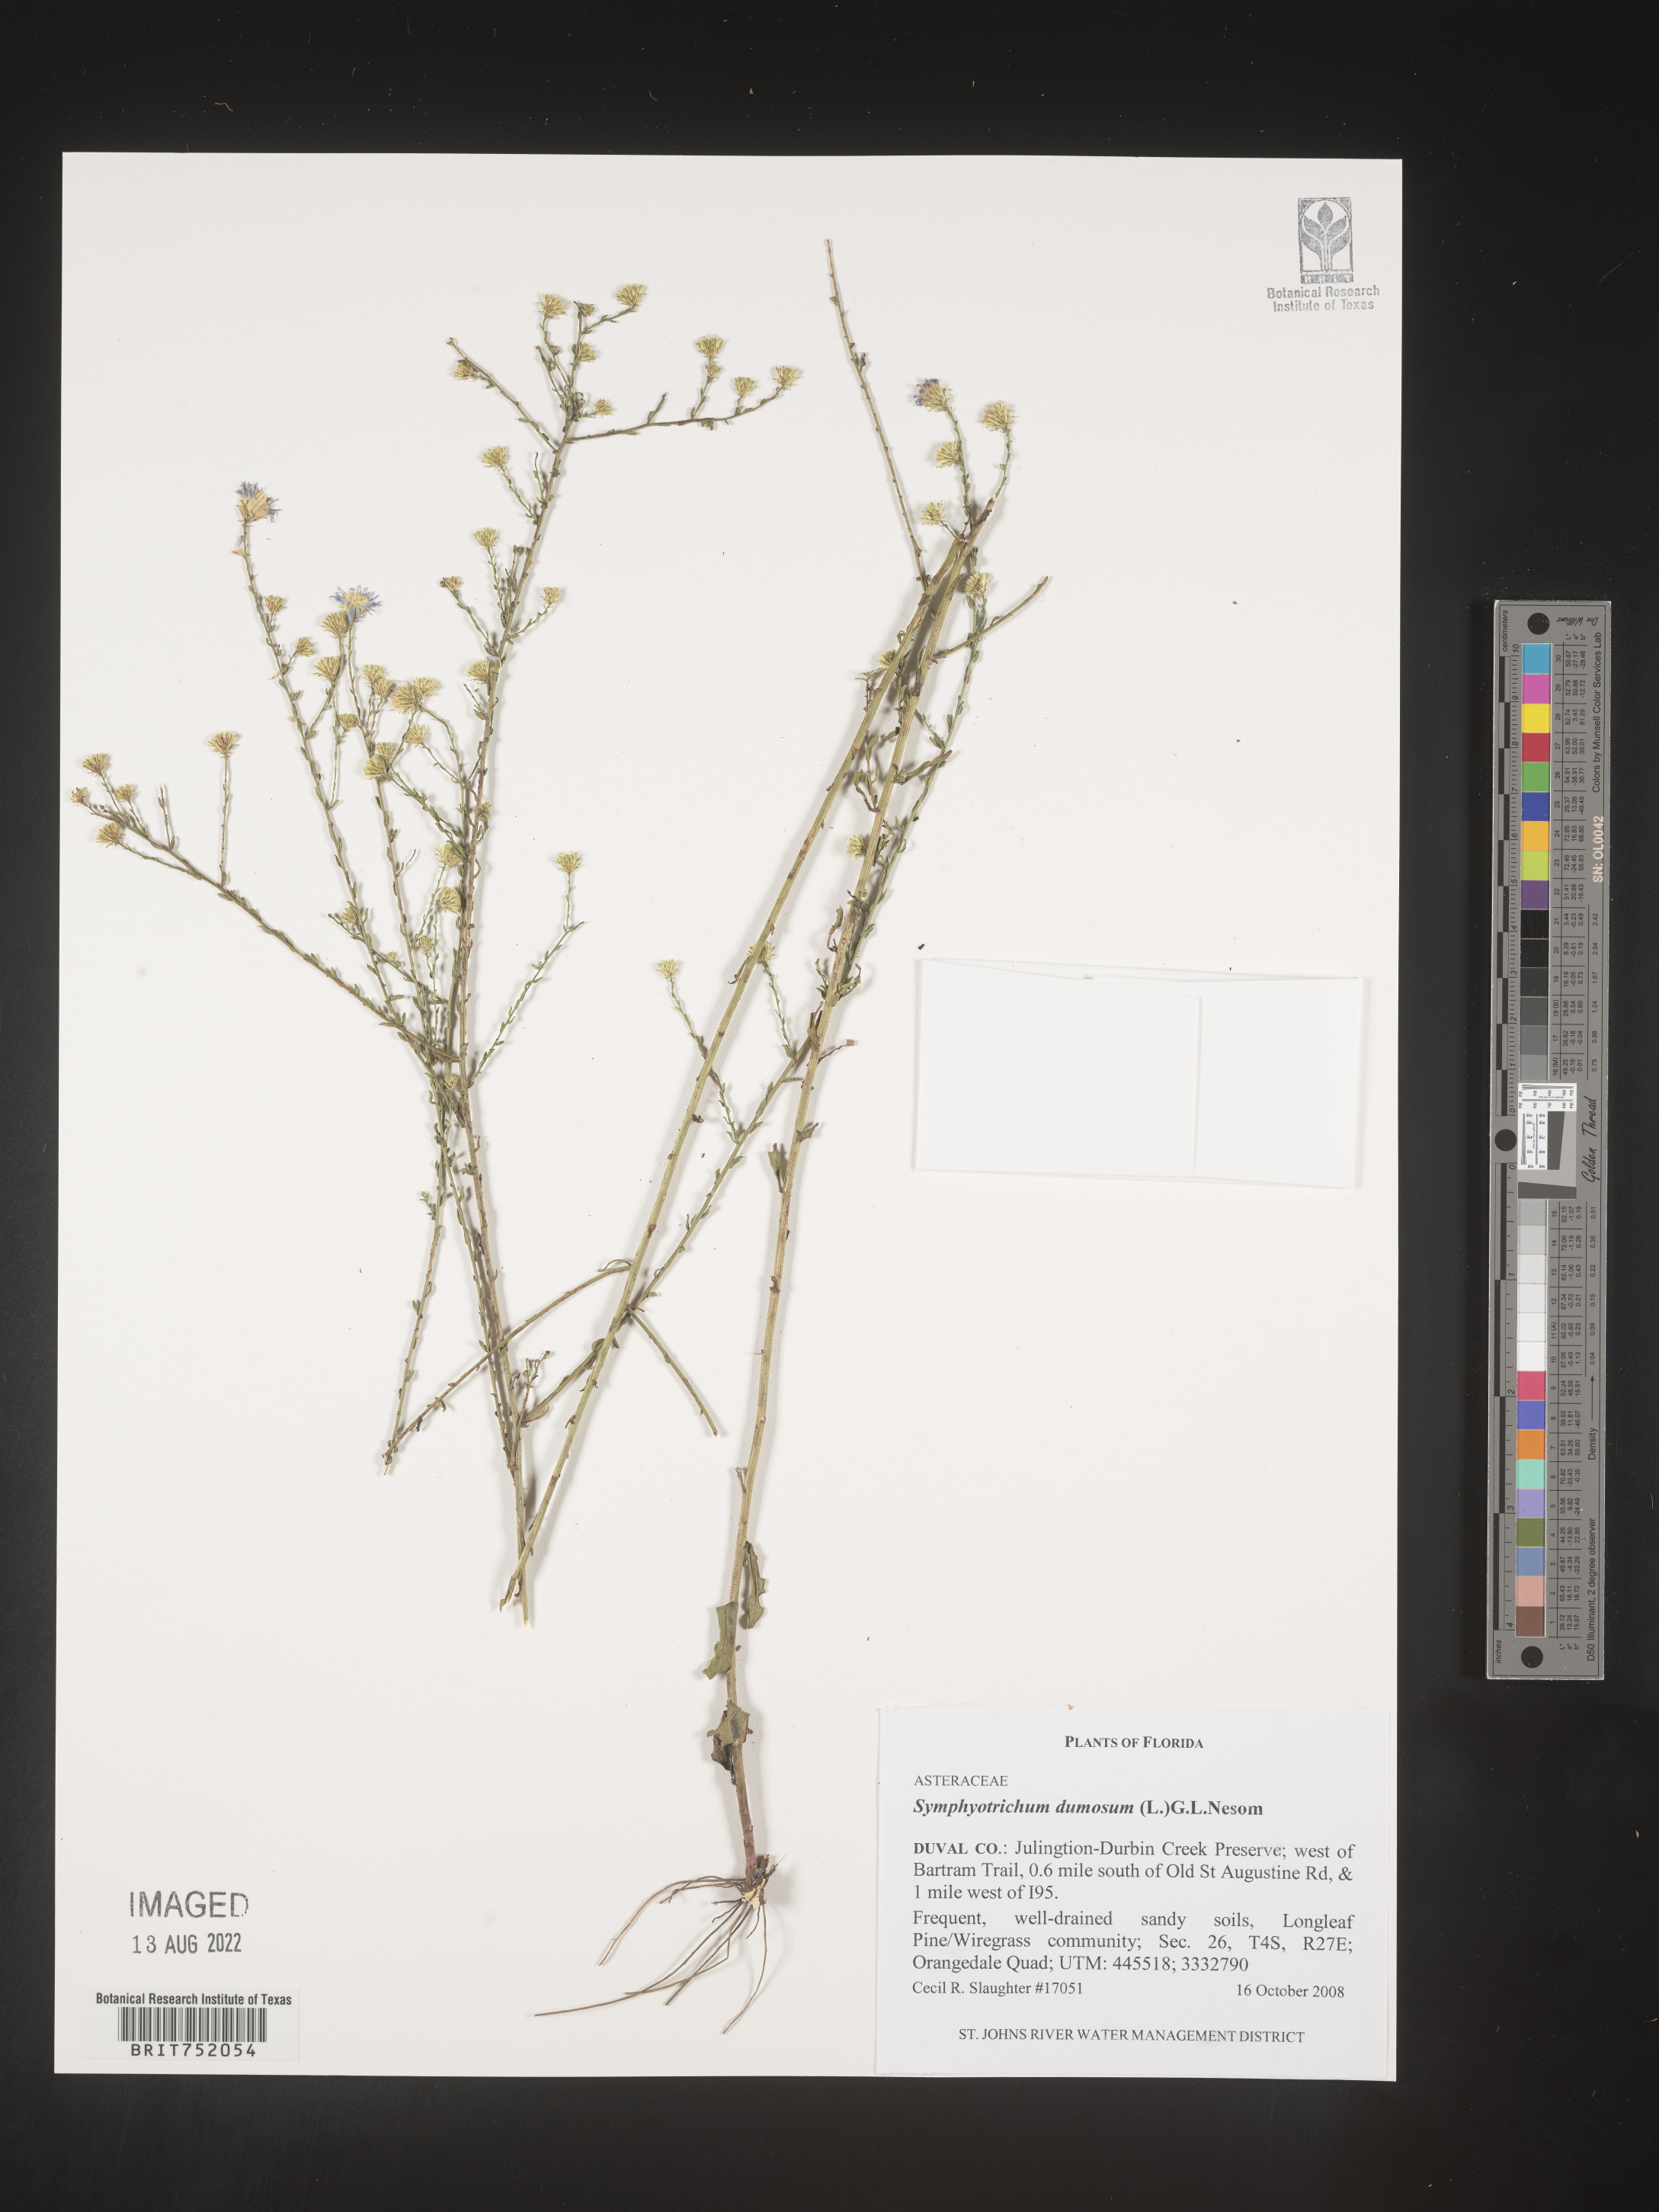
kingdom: Plantae
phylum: Tracheophyta
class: Magnoliopsida
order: Asterales
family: Asteraceae
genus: Symphyotrichum
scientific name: Symphyotrichum dumosum
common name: Bushy aster
